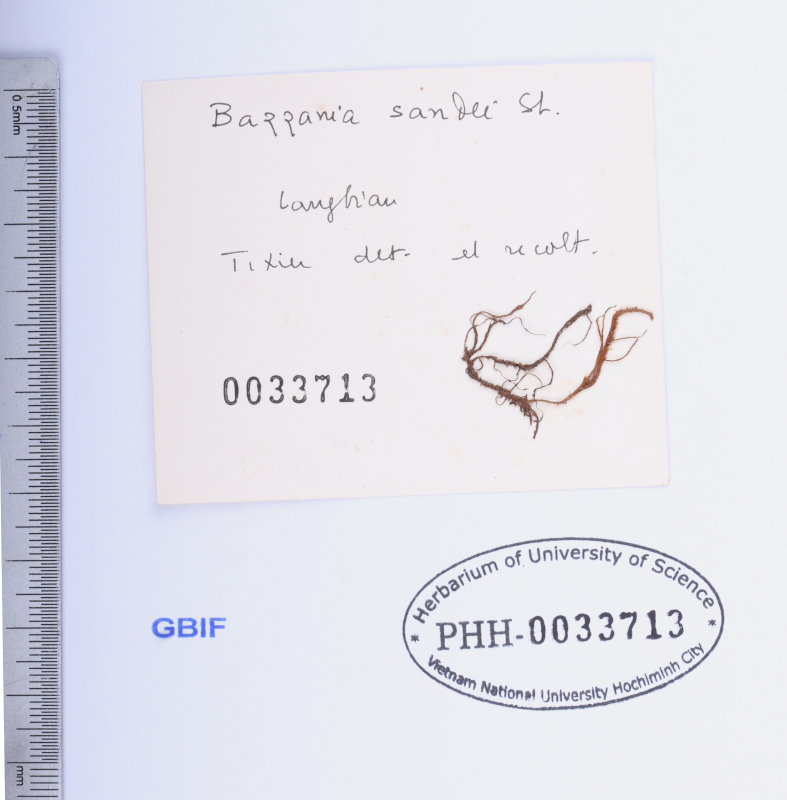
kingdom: Plantae
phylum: Marchantiophyta
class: Jungermanniopsida
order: Jungermanniales
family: Lepidoziaceae
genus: Bazzania
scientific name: Bazzania praerupta
